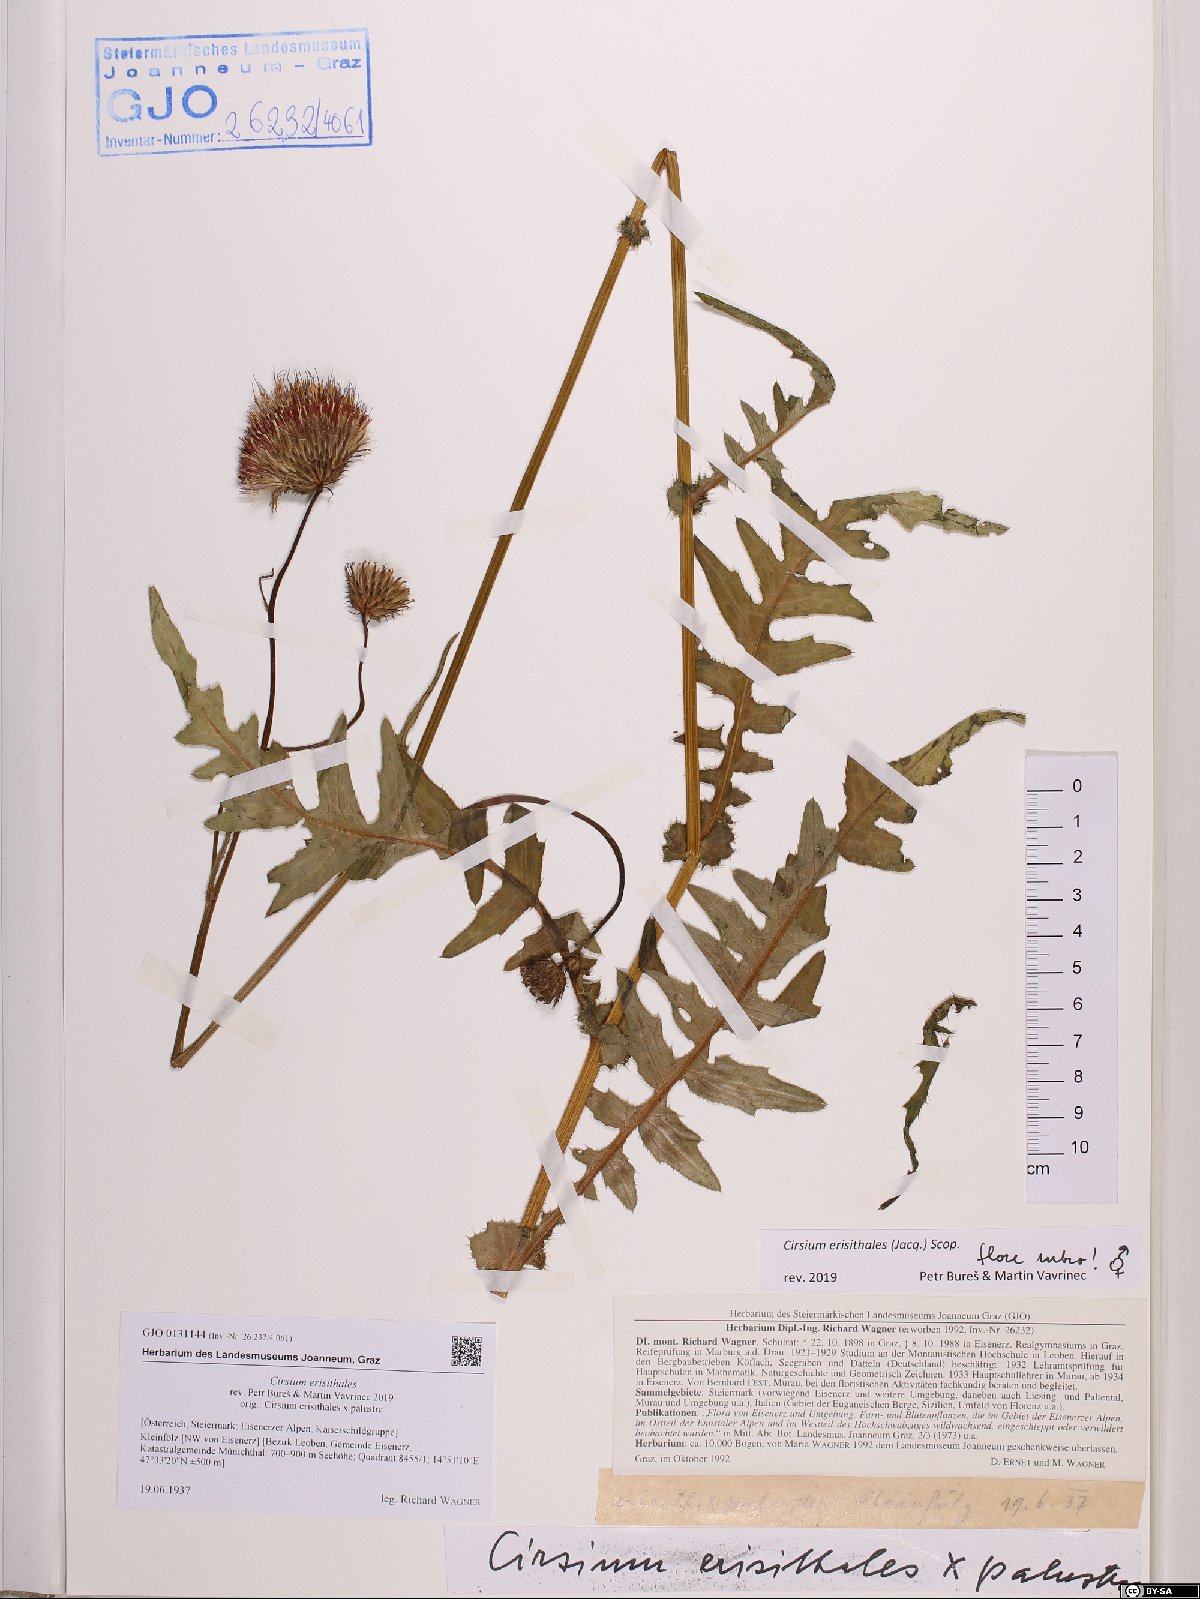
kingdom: Plantae
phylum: Tracheophyta
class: Magnoliopsida
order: Asterales
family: Asteraceae
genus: Cirsium
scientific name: Cirsium erisithales
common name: Yellow thistle
